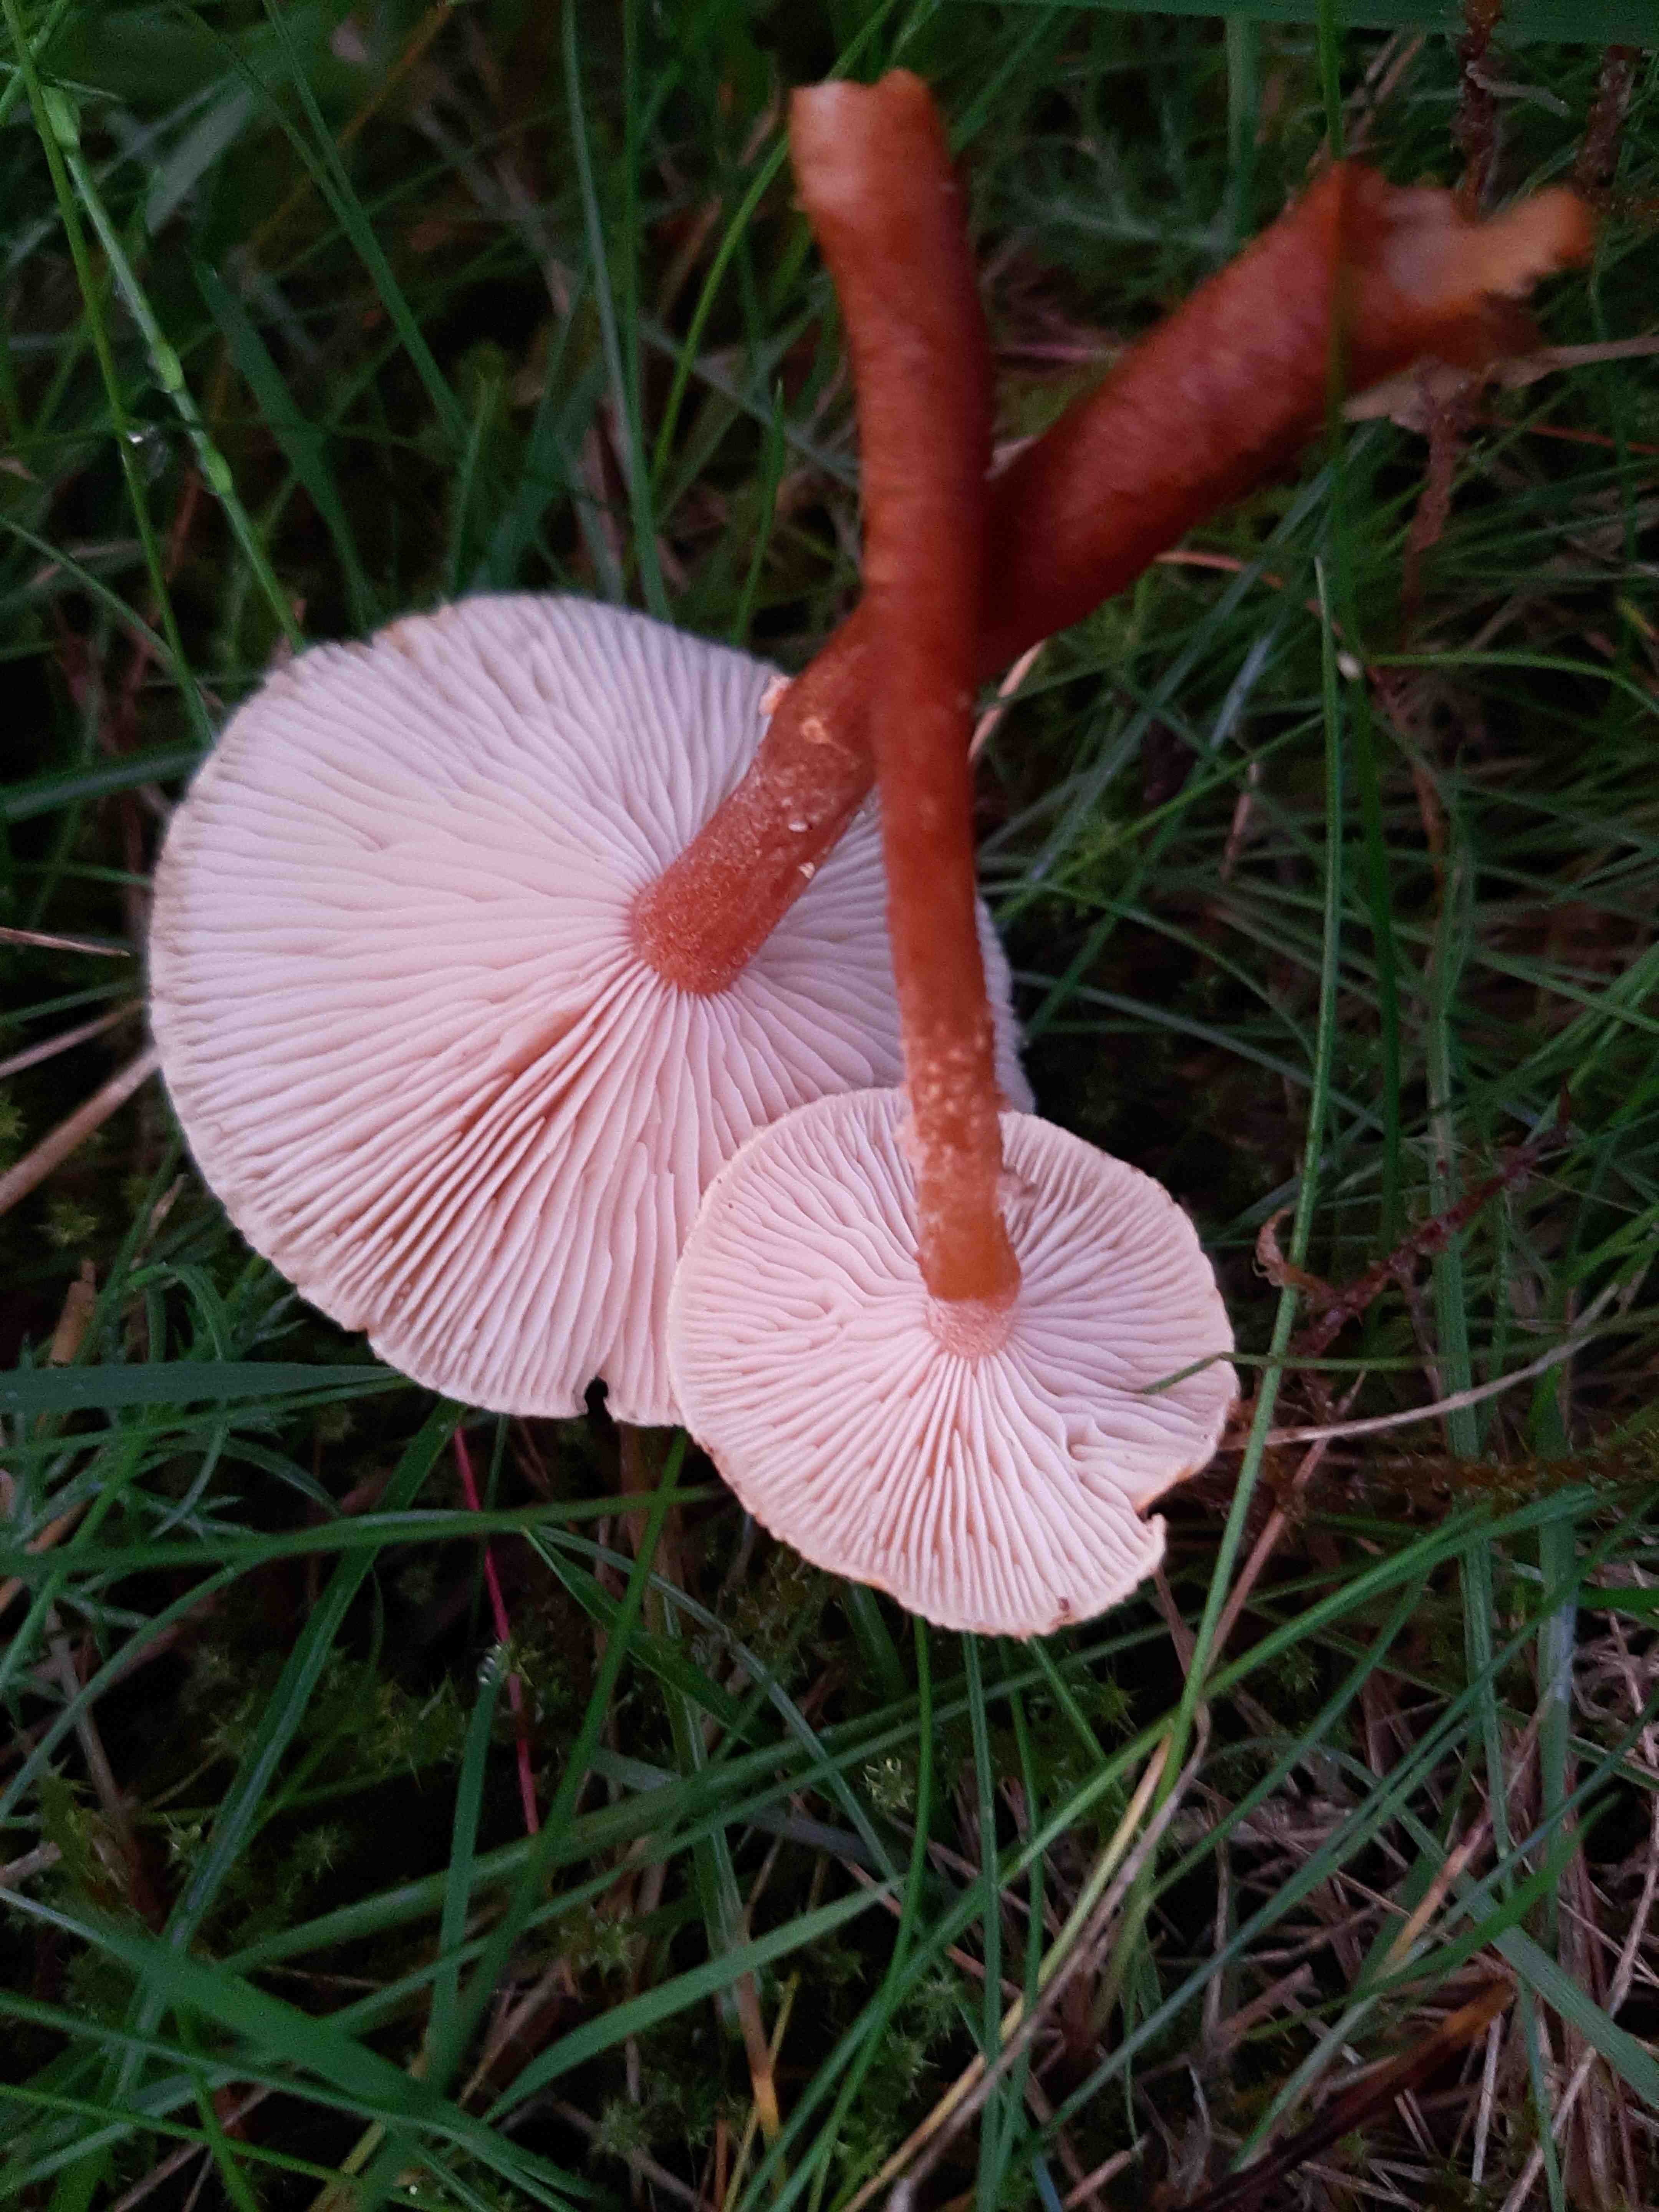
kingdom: Fungi
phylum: Basidiomycota
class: Agaricomycetes
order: Agaricales
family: Tricholomataceae
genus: Cystoderma
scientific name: Cystoderma amianthinum
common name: okkergul grynhat
